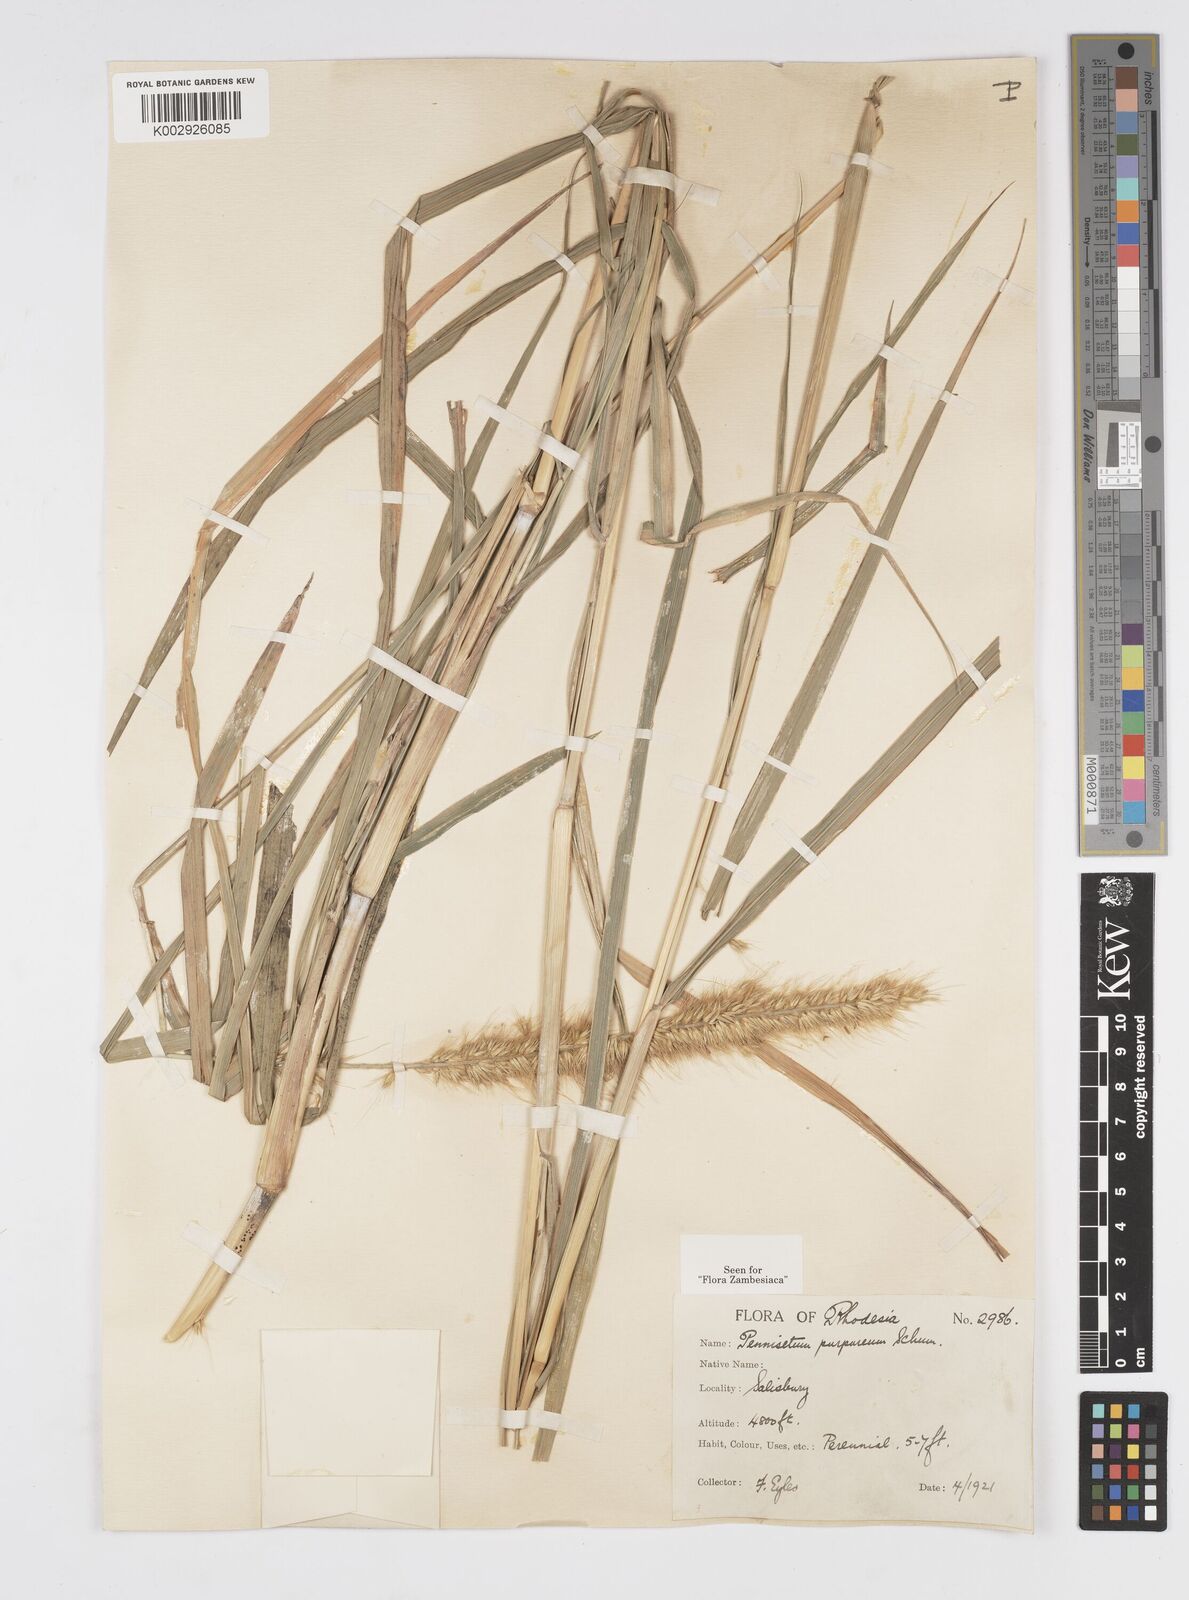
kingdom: Plantae
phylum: Tracheophyta
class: Liliopsida
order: Poales
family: Poaceae
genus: Cenchrus
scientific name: Cenchrus purpureus
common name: Elephant grass
